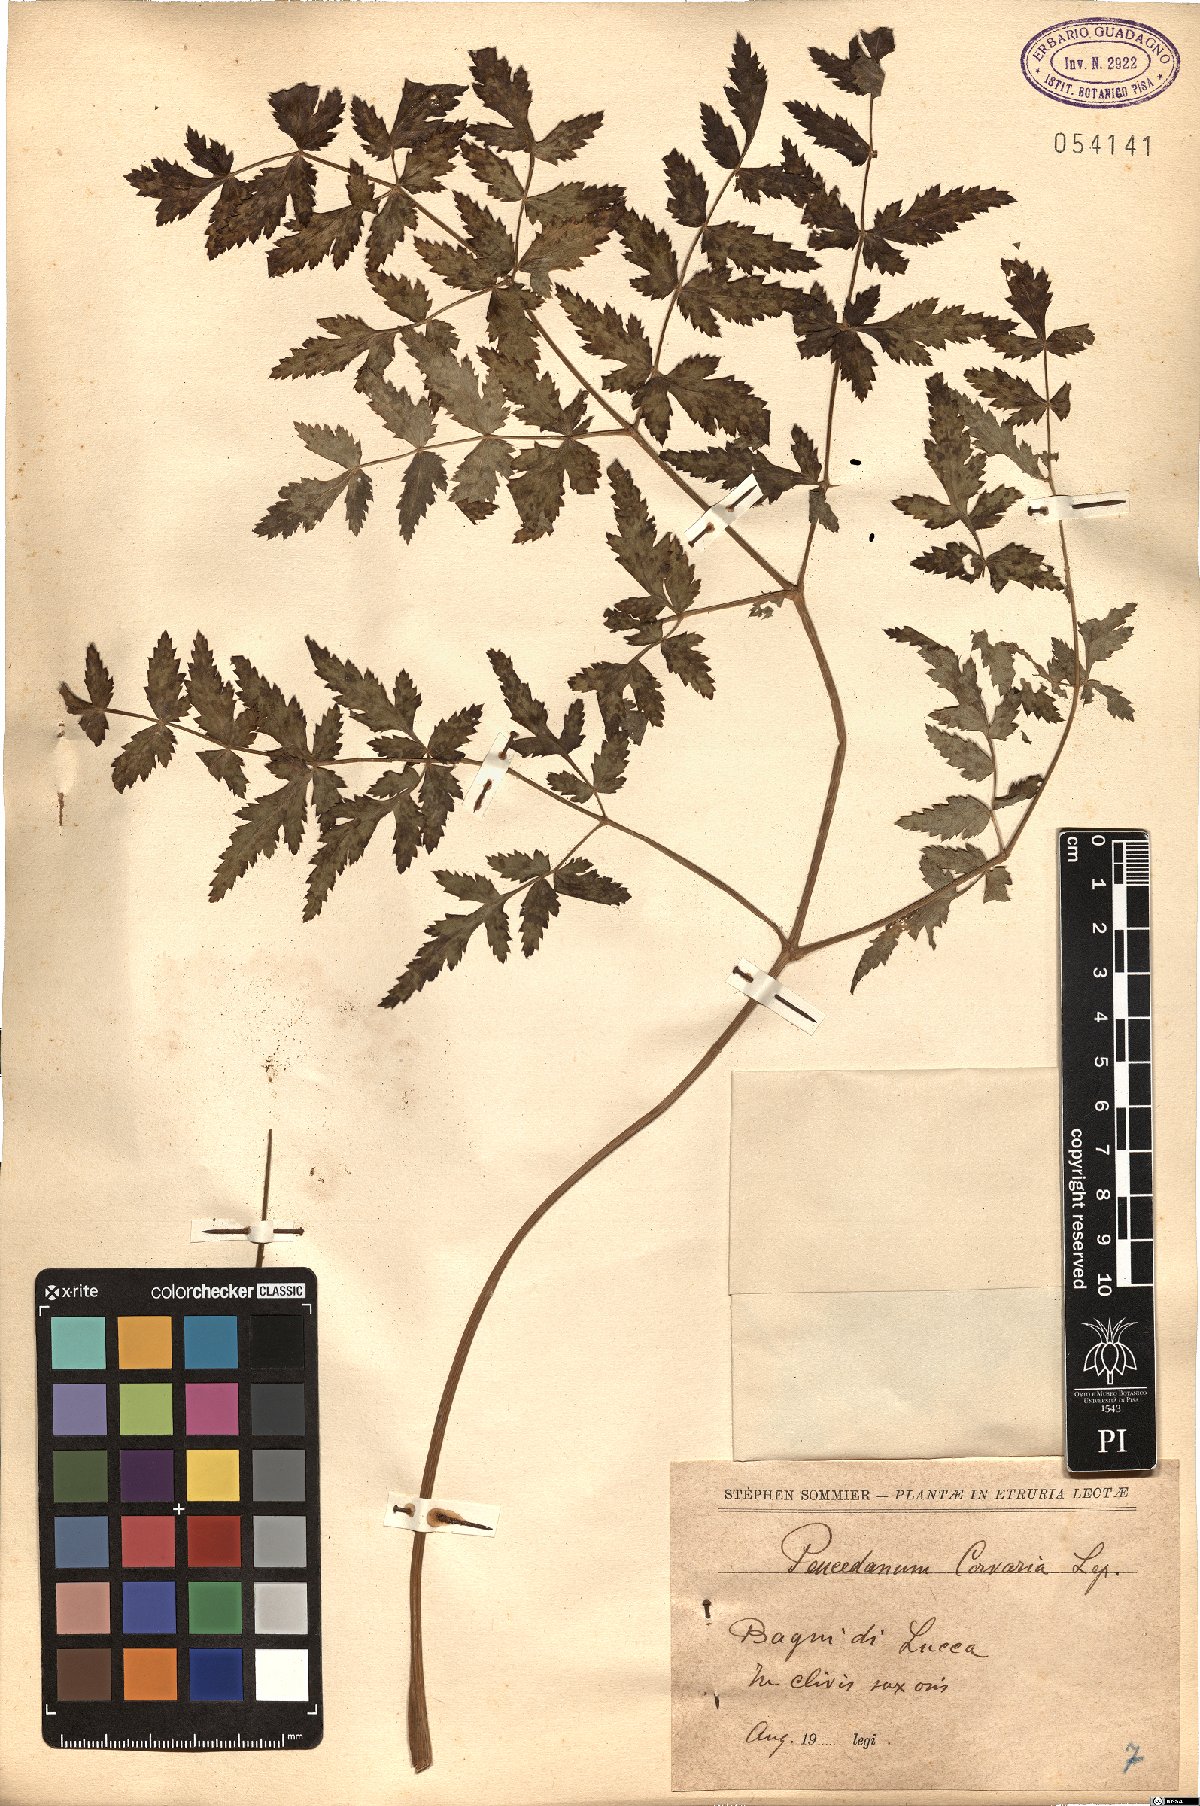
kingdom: Plantae
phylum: Tracheophyta
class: Magnoliopsida
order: Apiales
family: Apiaceae
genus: Cervaria
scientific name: Cervaria rivini
